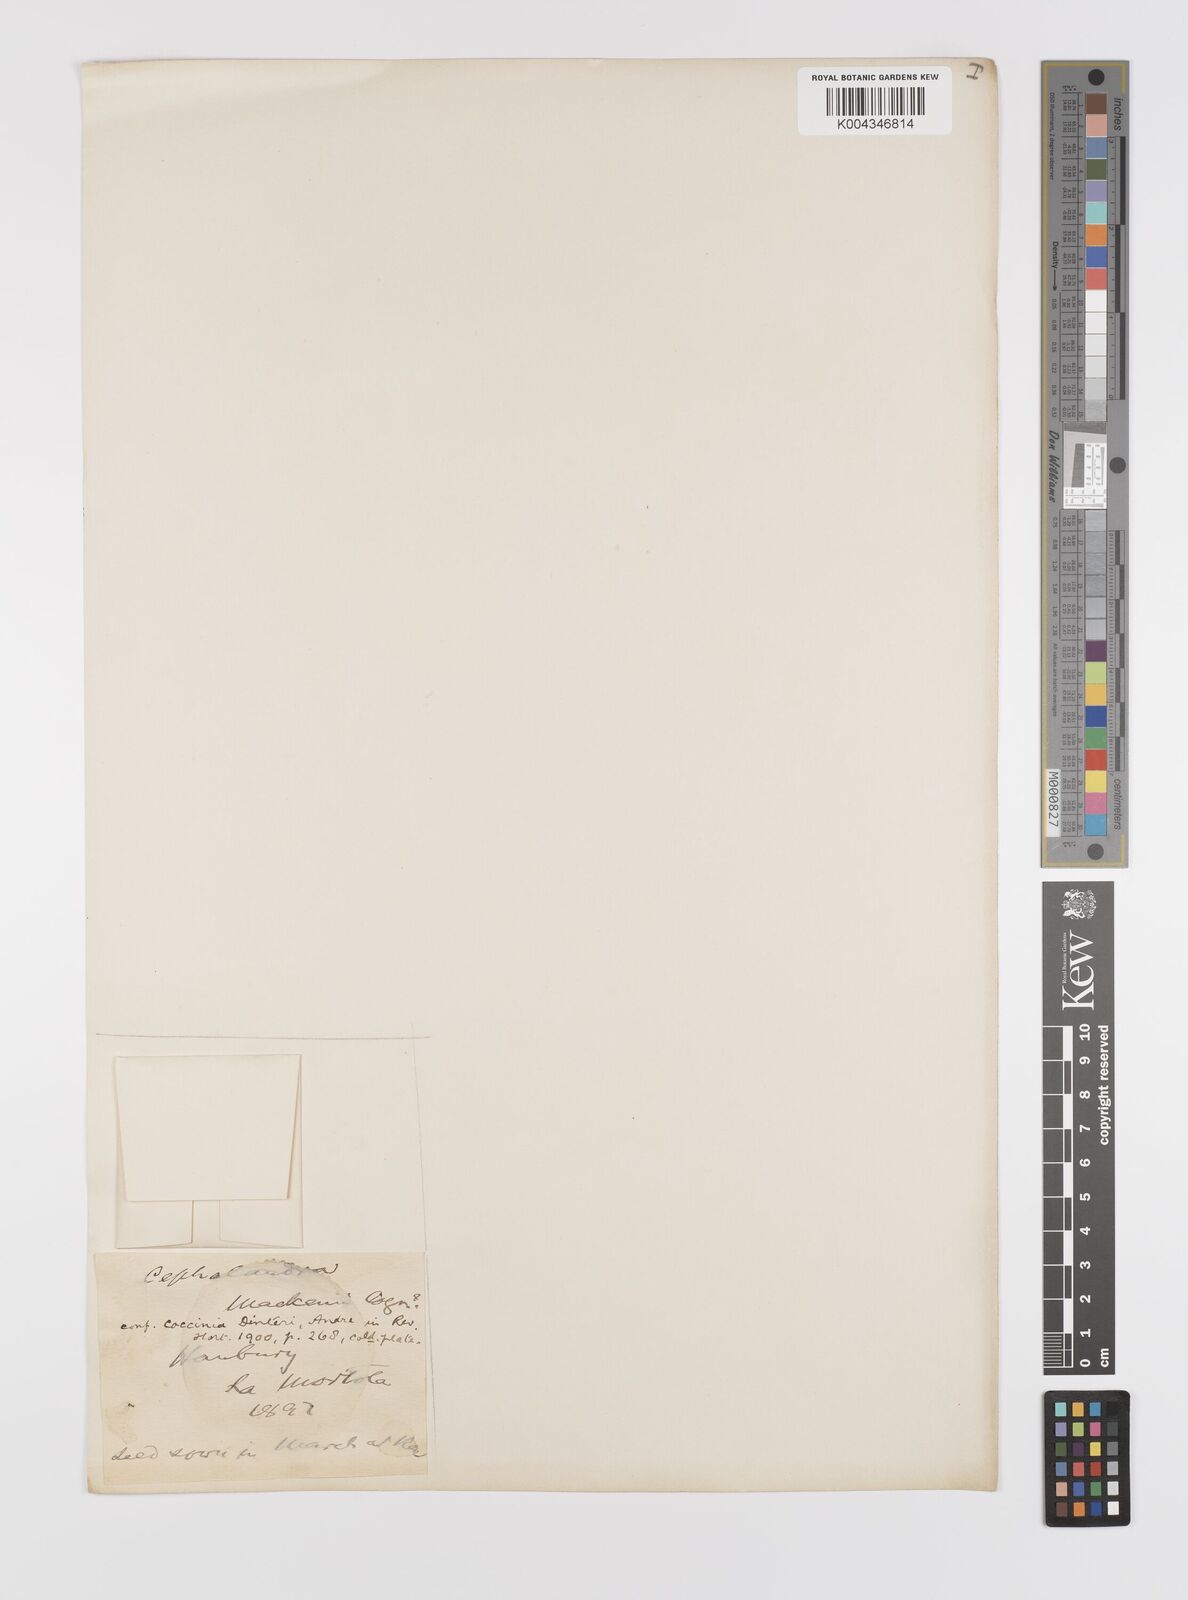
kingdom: Plantae
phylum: Tracheophyta
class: Magnoliopsida
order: Cucurbitales
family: Cucurbitaceae
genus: Coccinia
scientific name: Coccinia palmata
